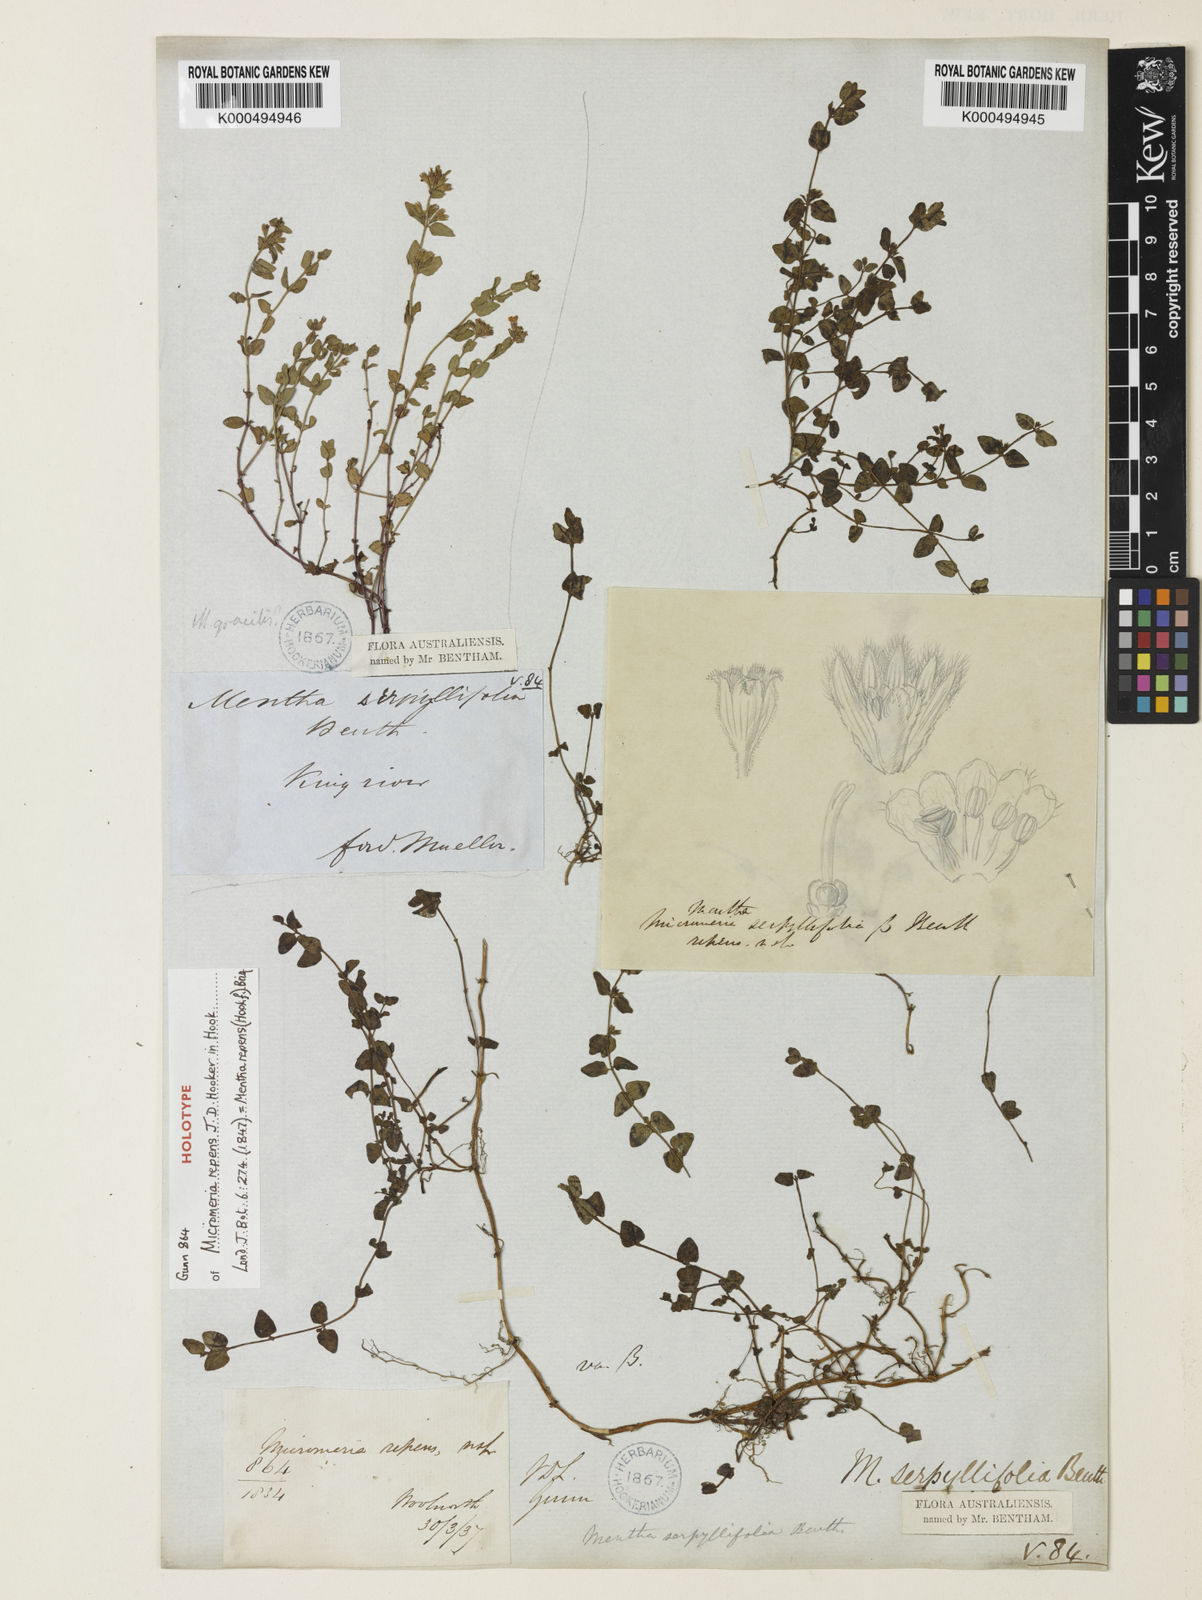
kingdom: Plantae
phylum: Tracheophyta
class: Magnoliopsida
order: Lamiales
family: Lamiaceae
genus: Mentha
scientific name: Mentha diemenica
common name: Wild mint
